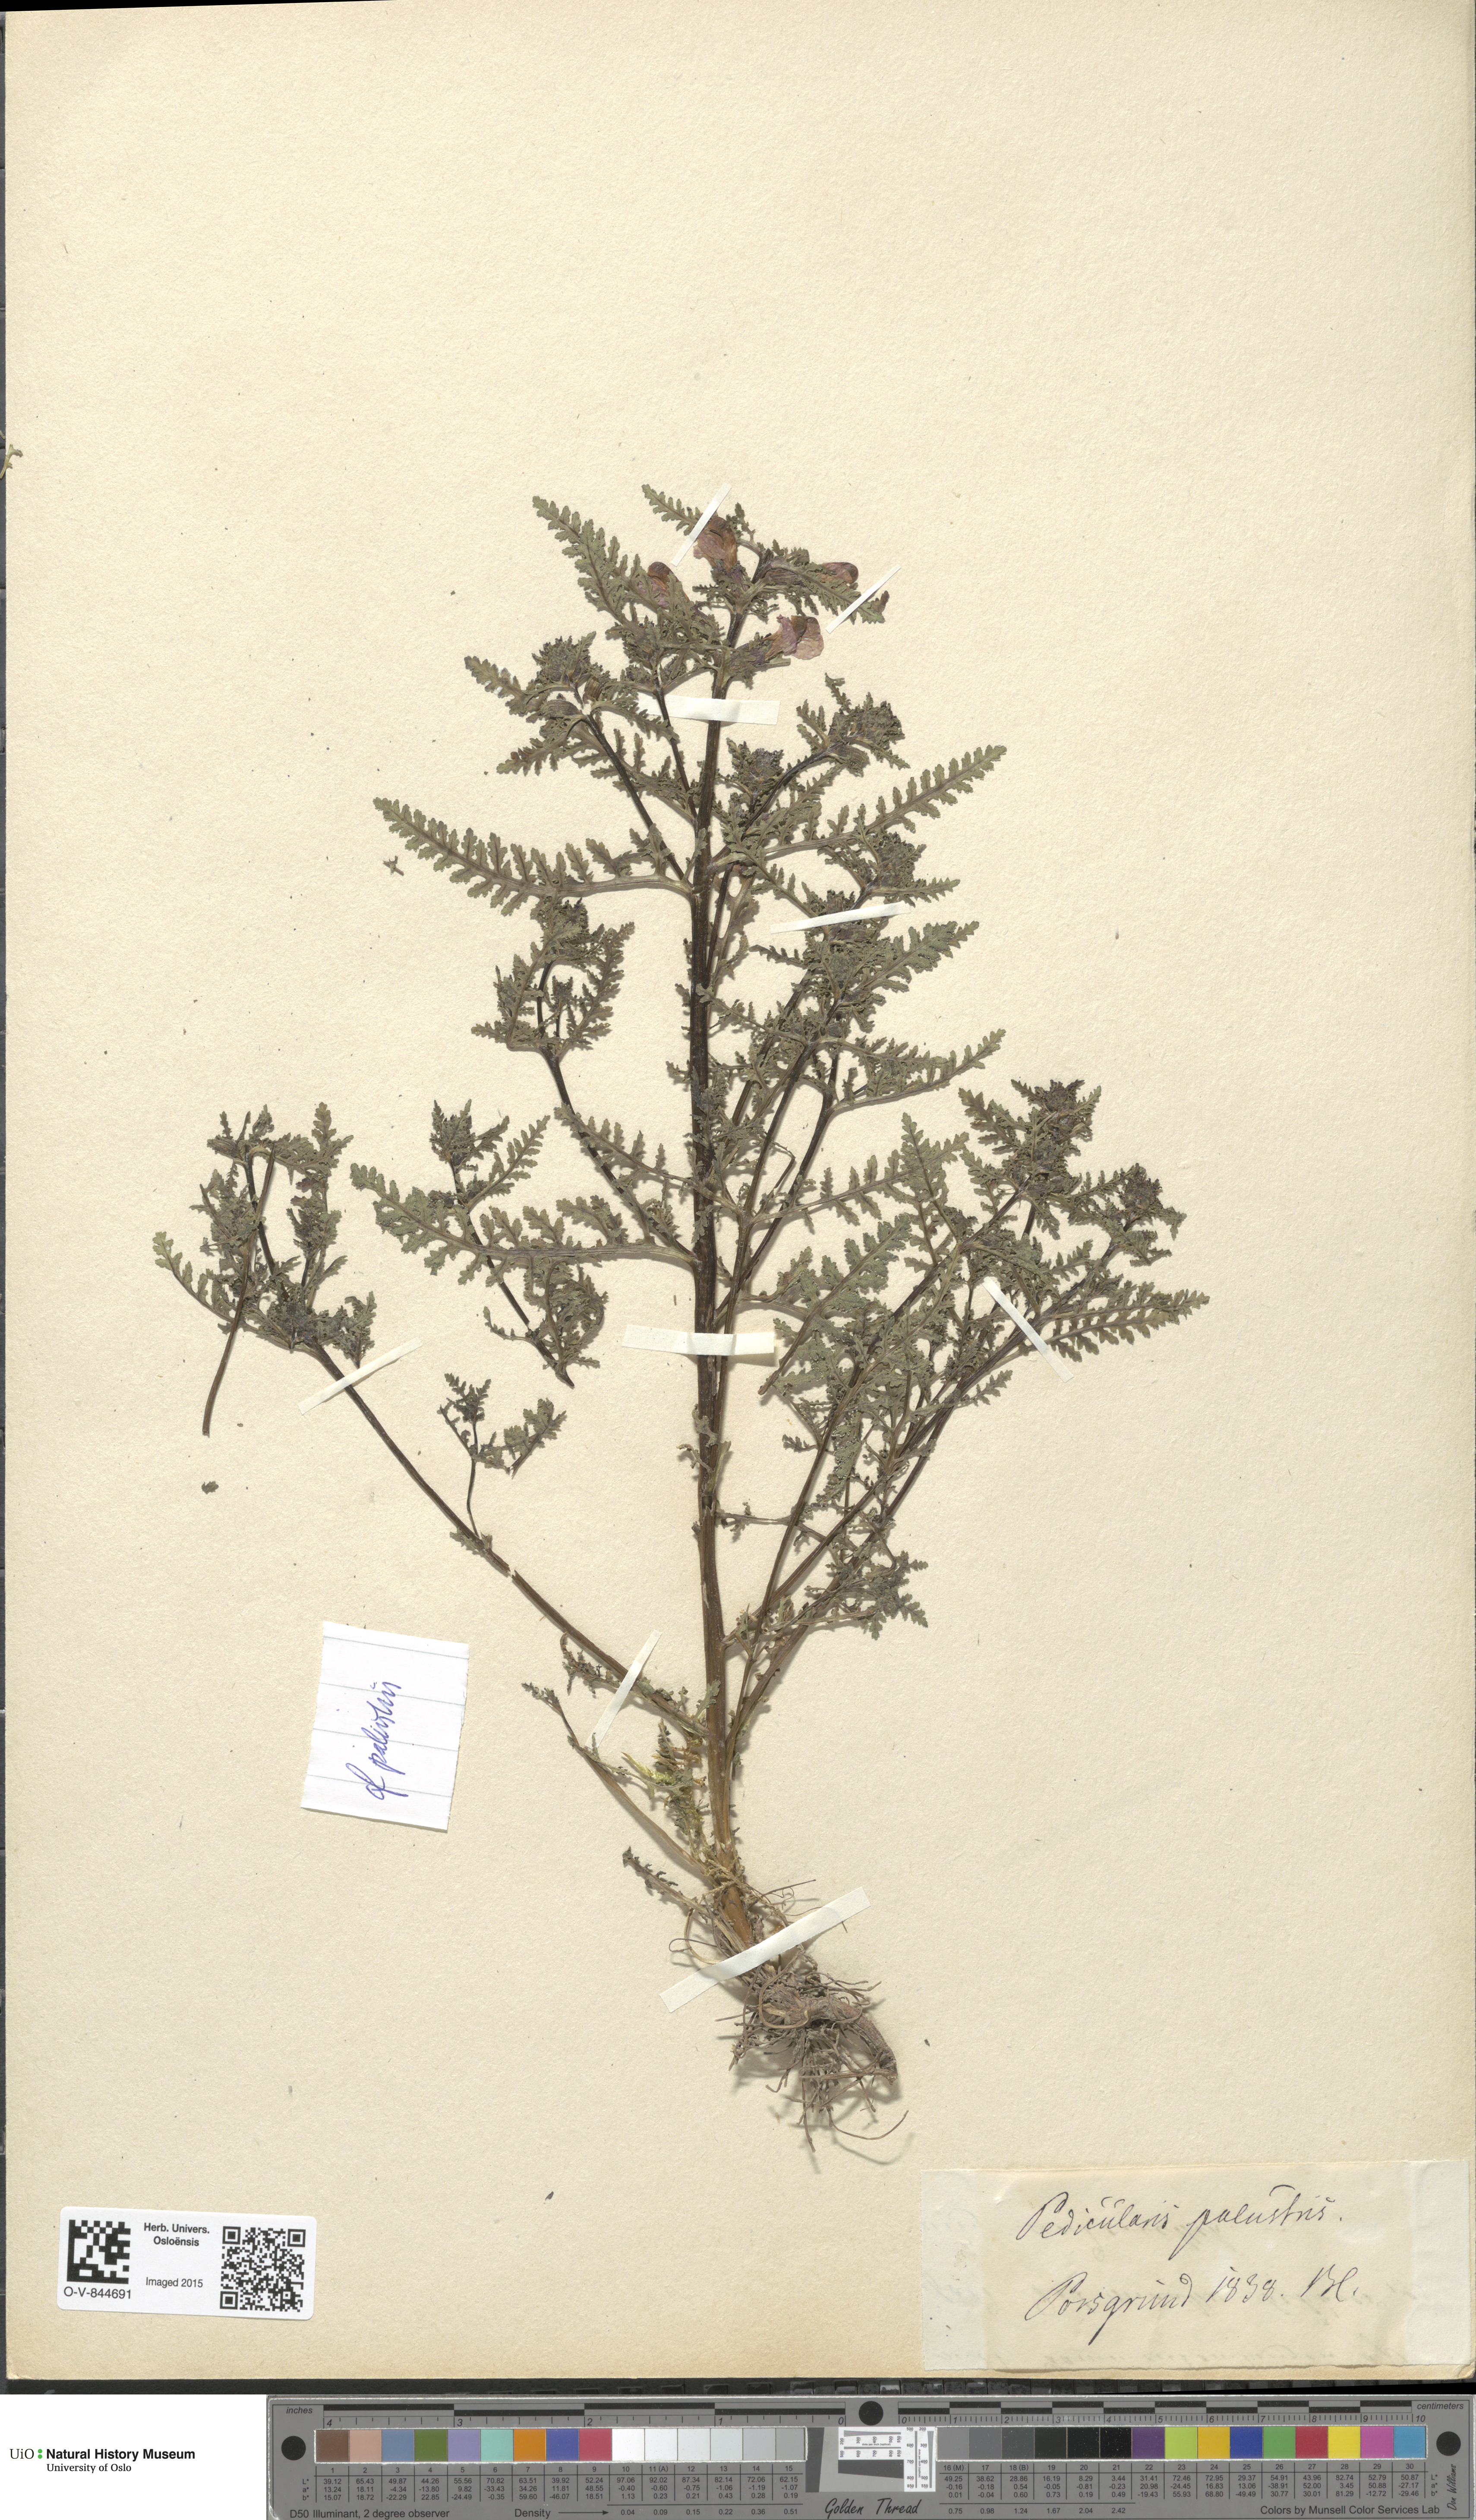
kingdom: Plantae
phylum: Tracheophyta
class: Magnoliopsida
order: Lamiales
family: Orobanchaceae
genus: Pedicularis
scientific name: Pedicularis palustris
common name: Marsh lousewort
